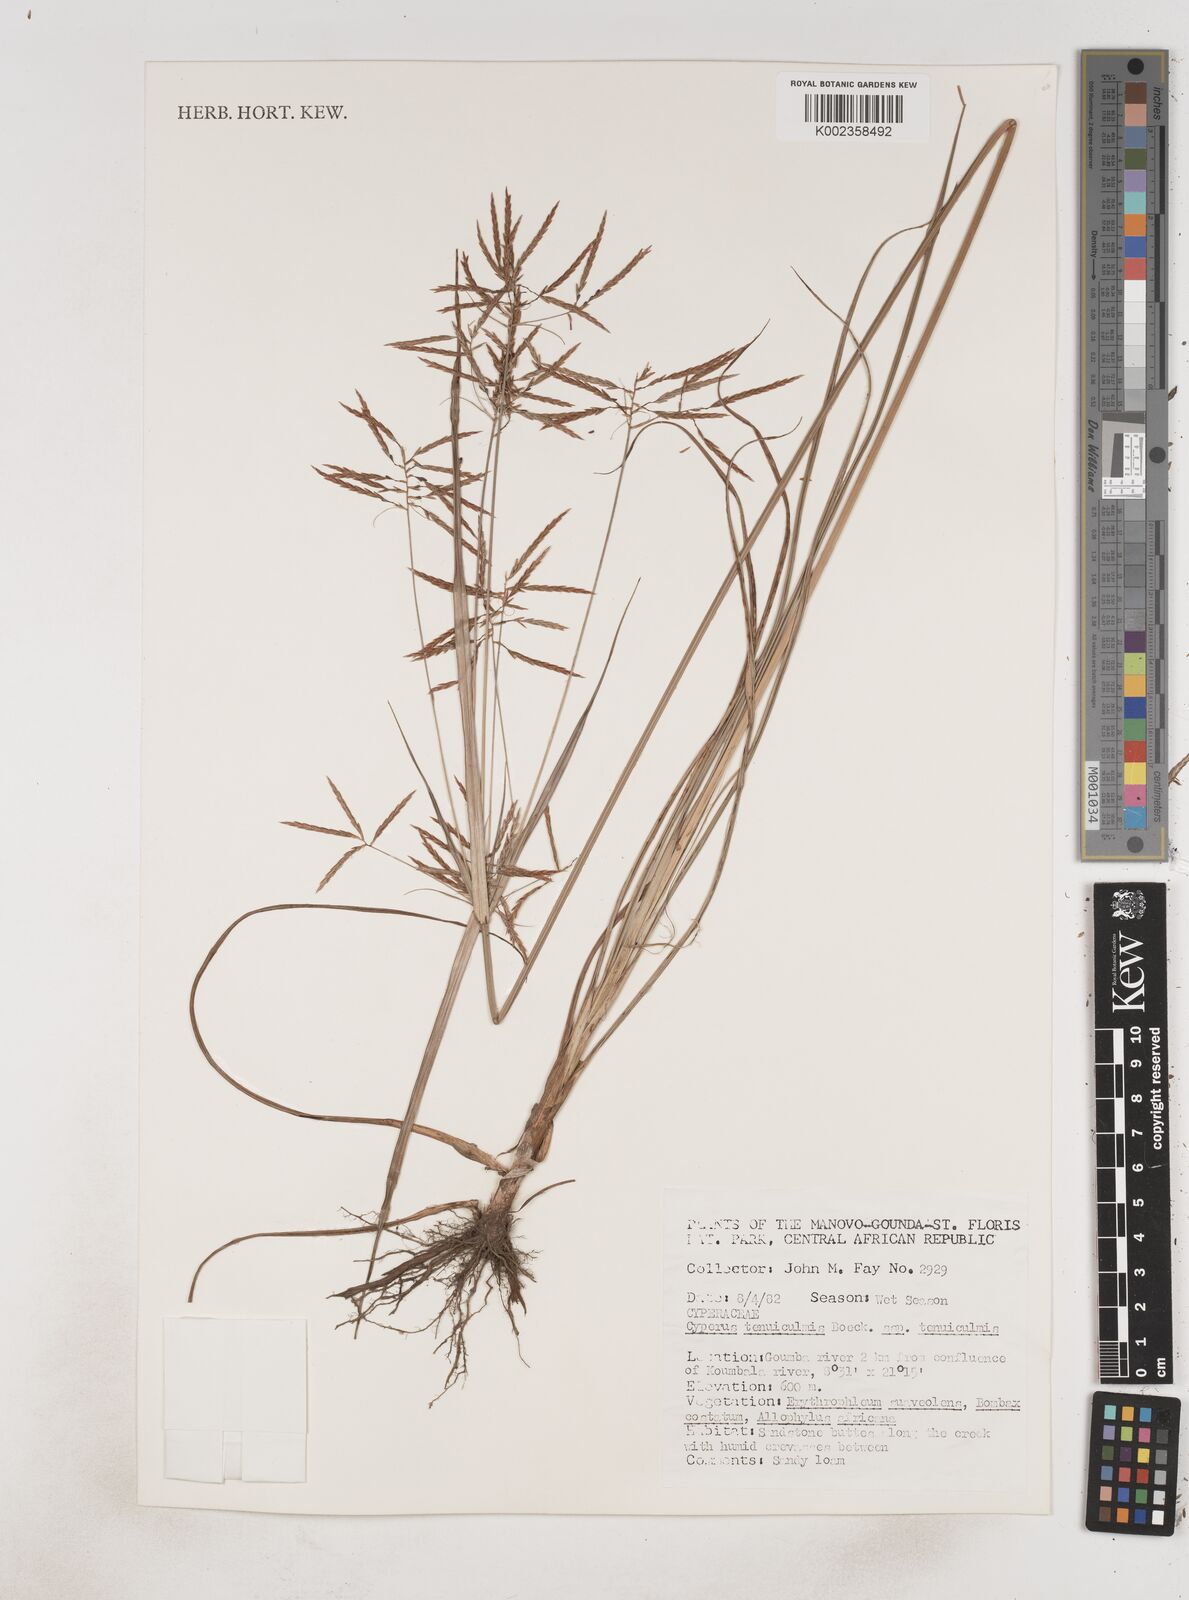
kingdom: Plantae
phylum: Tracheophyta
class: Liliopsida
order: Poales
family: Cyperaceae
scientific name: Cyperaceae
